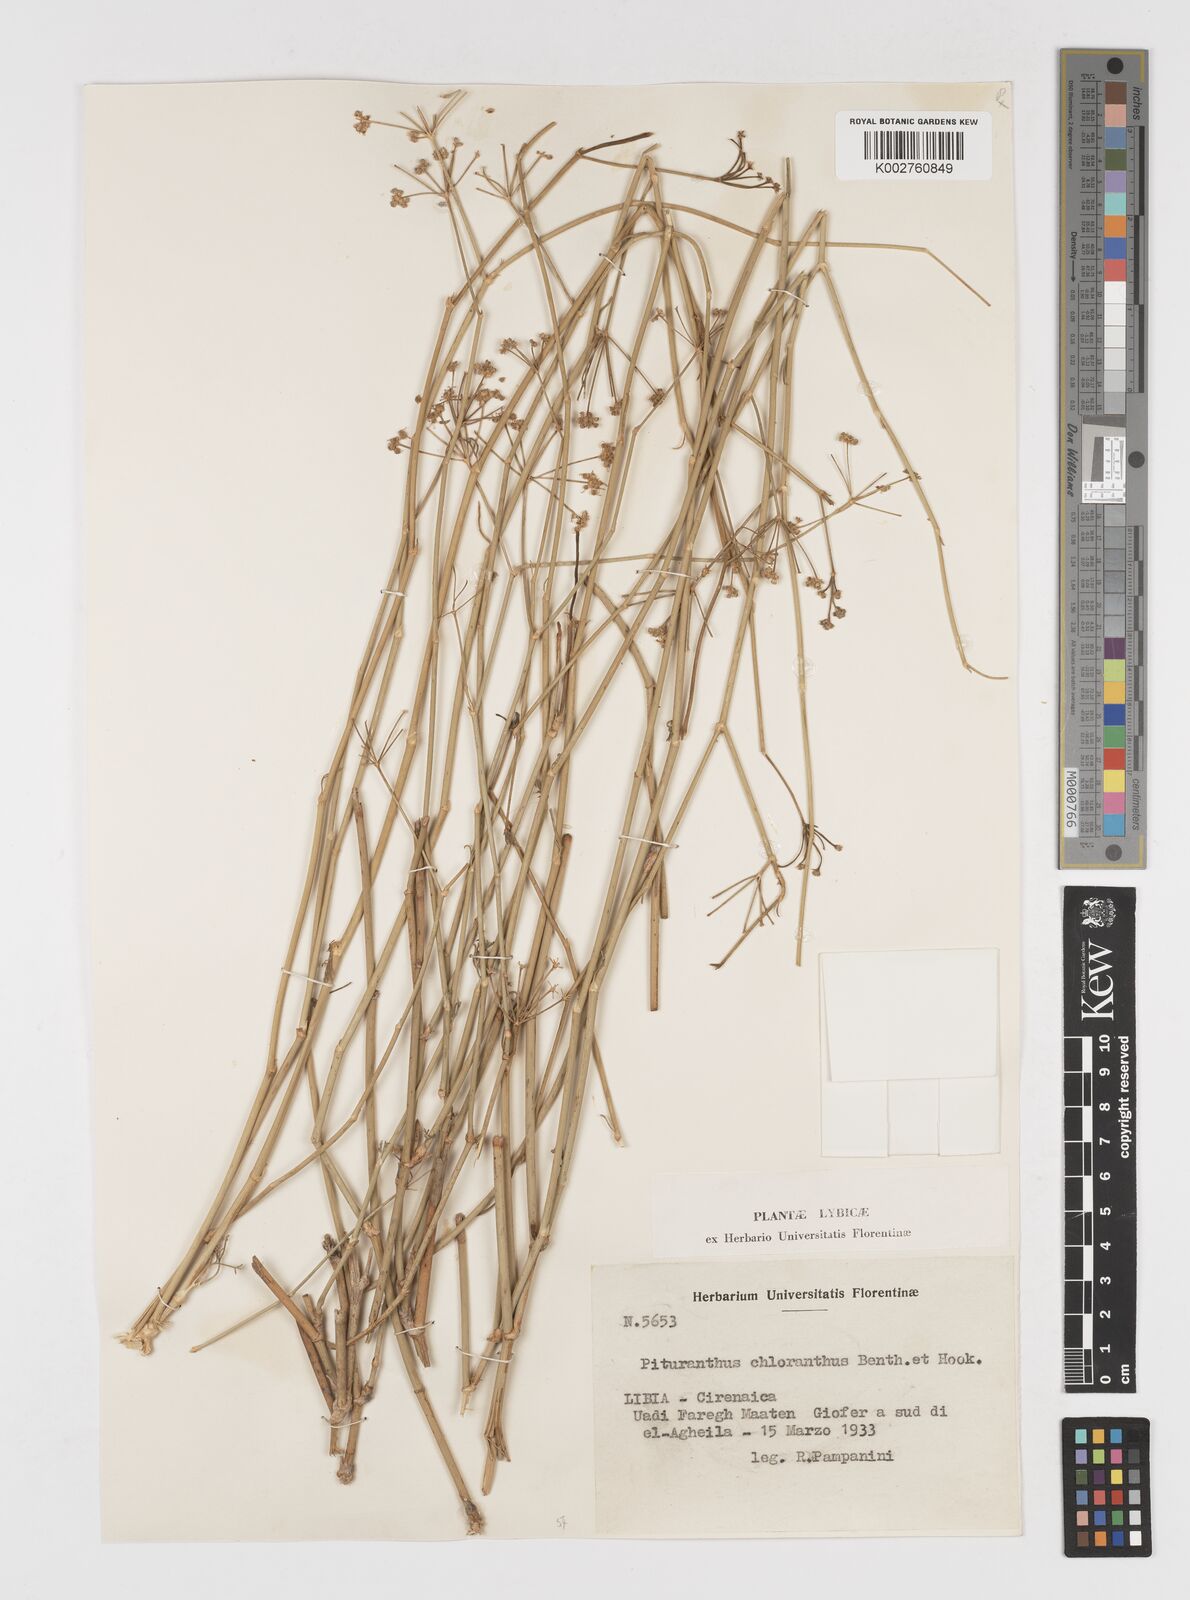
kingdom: Plantae
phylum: Tracheophyta
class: Magnoliopsida
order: Apiales
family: Apiaceae
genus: Deverra
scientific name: Deverra denudata
